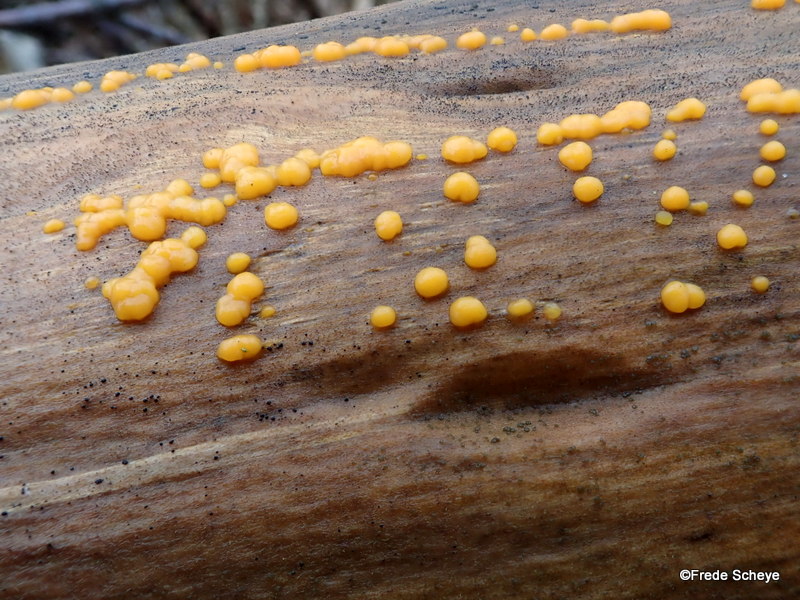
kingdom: Fungi
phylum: Basidiomycota
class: Dacrymycetes
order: Dacrymycetales
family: Dacrymycetaceae
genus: Dacrymyces
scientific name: Dacrymyces stillatus
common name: almindelig tåresvamp
